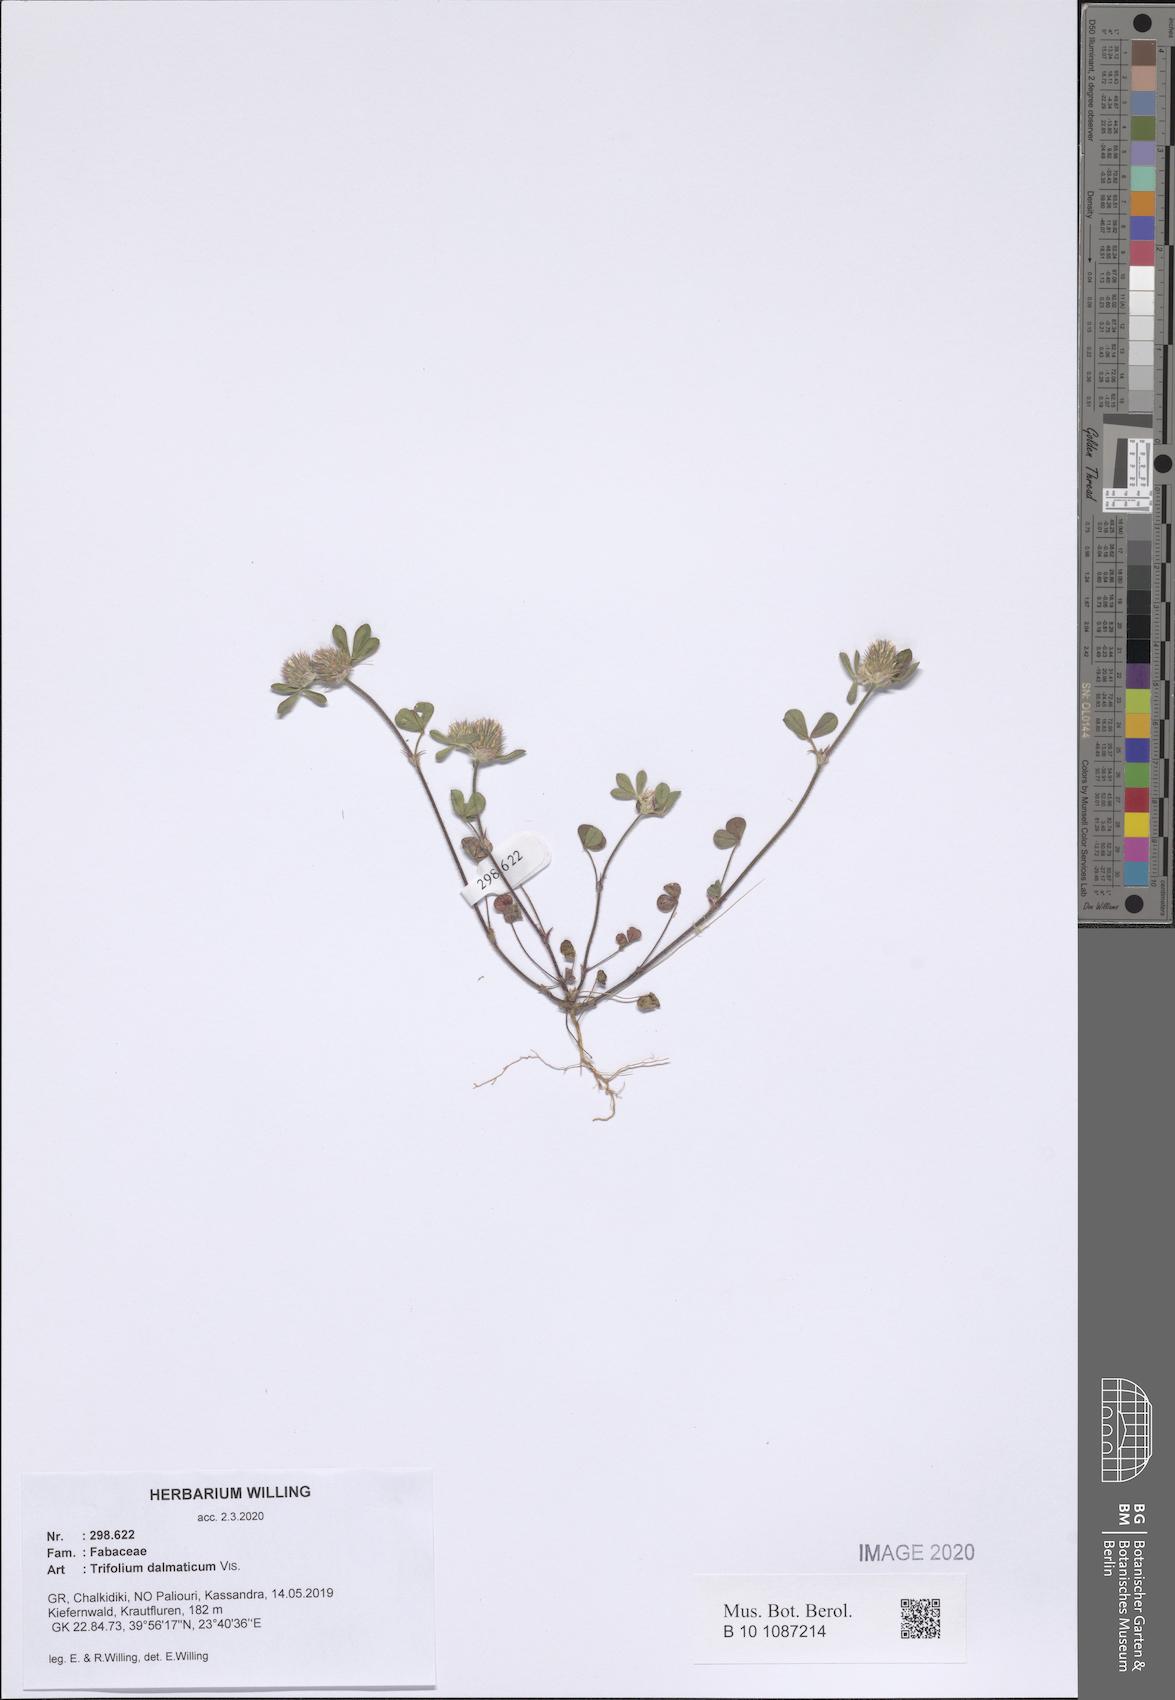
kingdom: Plantae
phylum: Tracheophyta
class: Magnoliopsida
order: Fabales
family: Fabaceae
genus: Trifolium
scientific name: Trifolium dalmaticum
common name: Dalmatian clover
